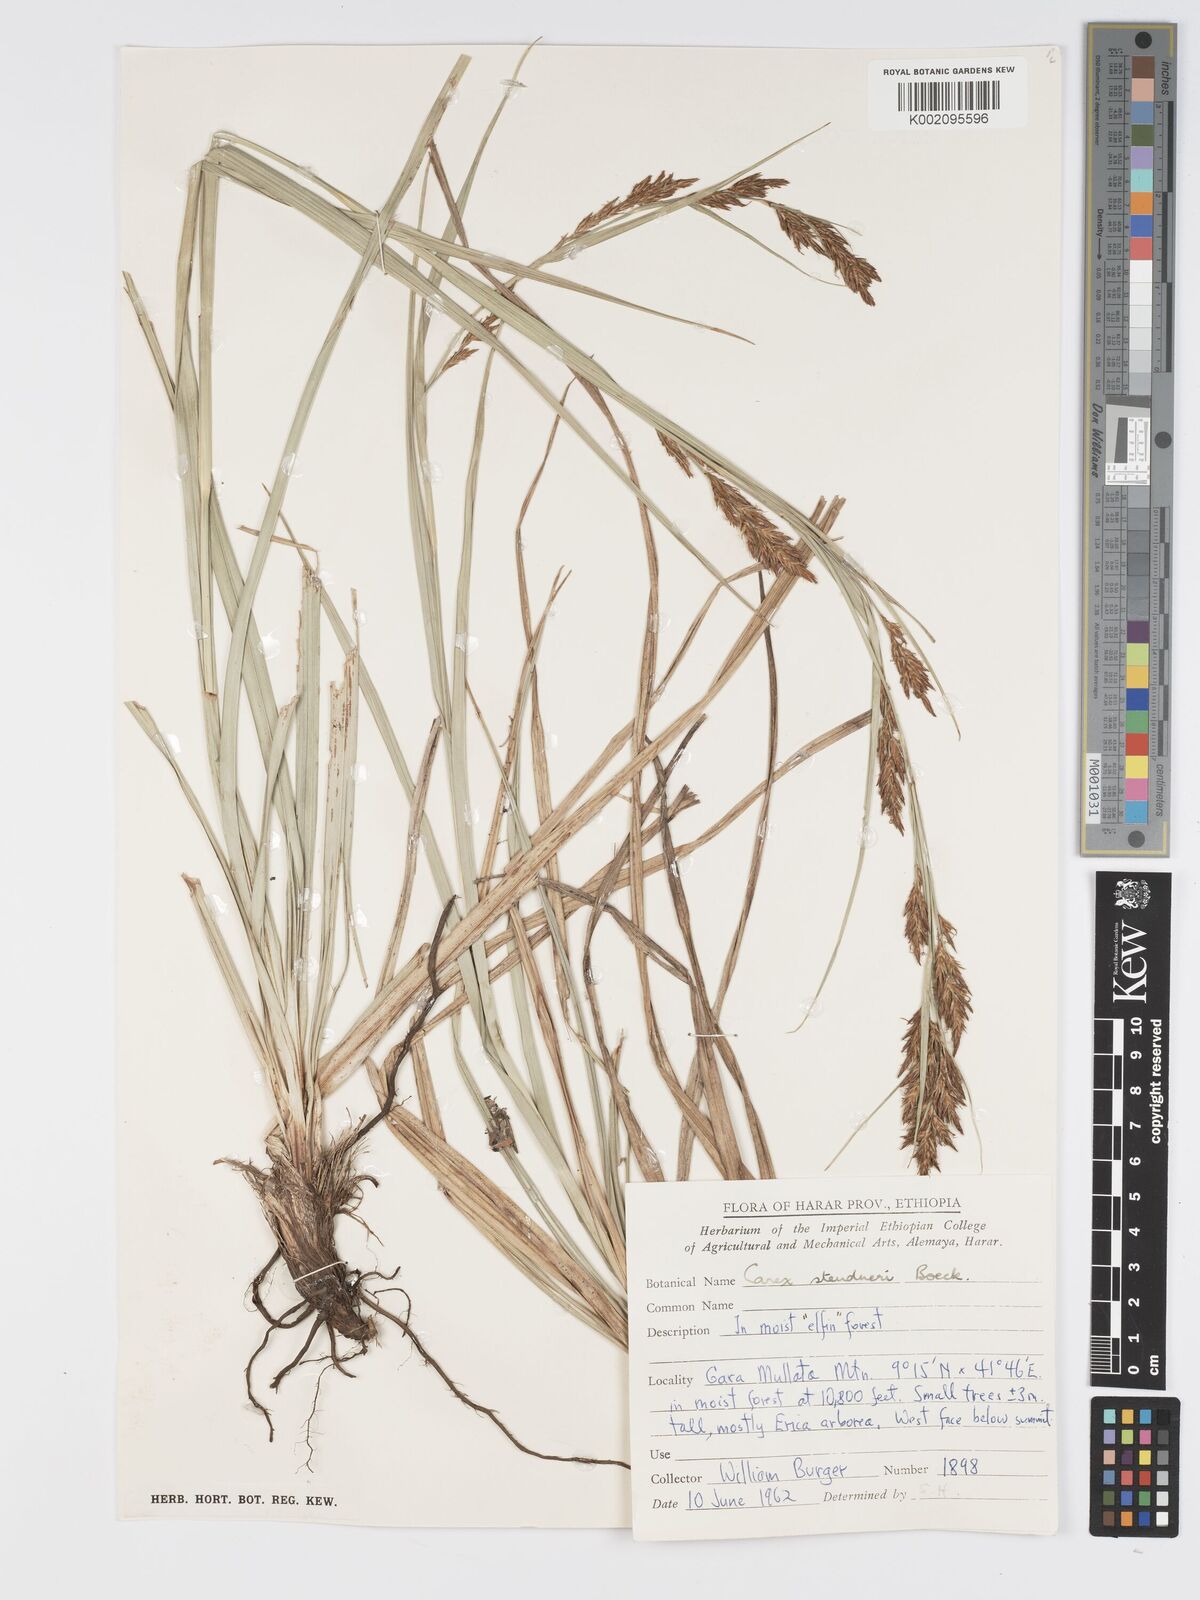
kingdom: Plantae
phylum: Tracheophyta
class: Liliopsida
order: Poales
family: Cyperaceae
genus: Carex
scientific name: Carex steudneri
